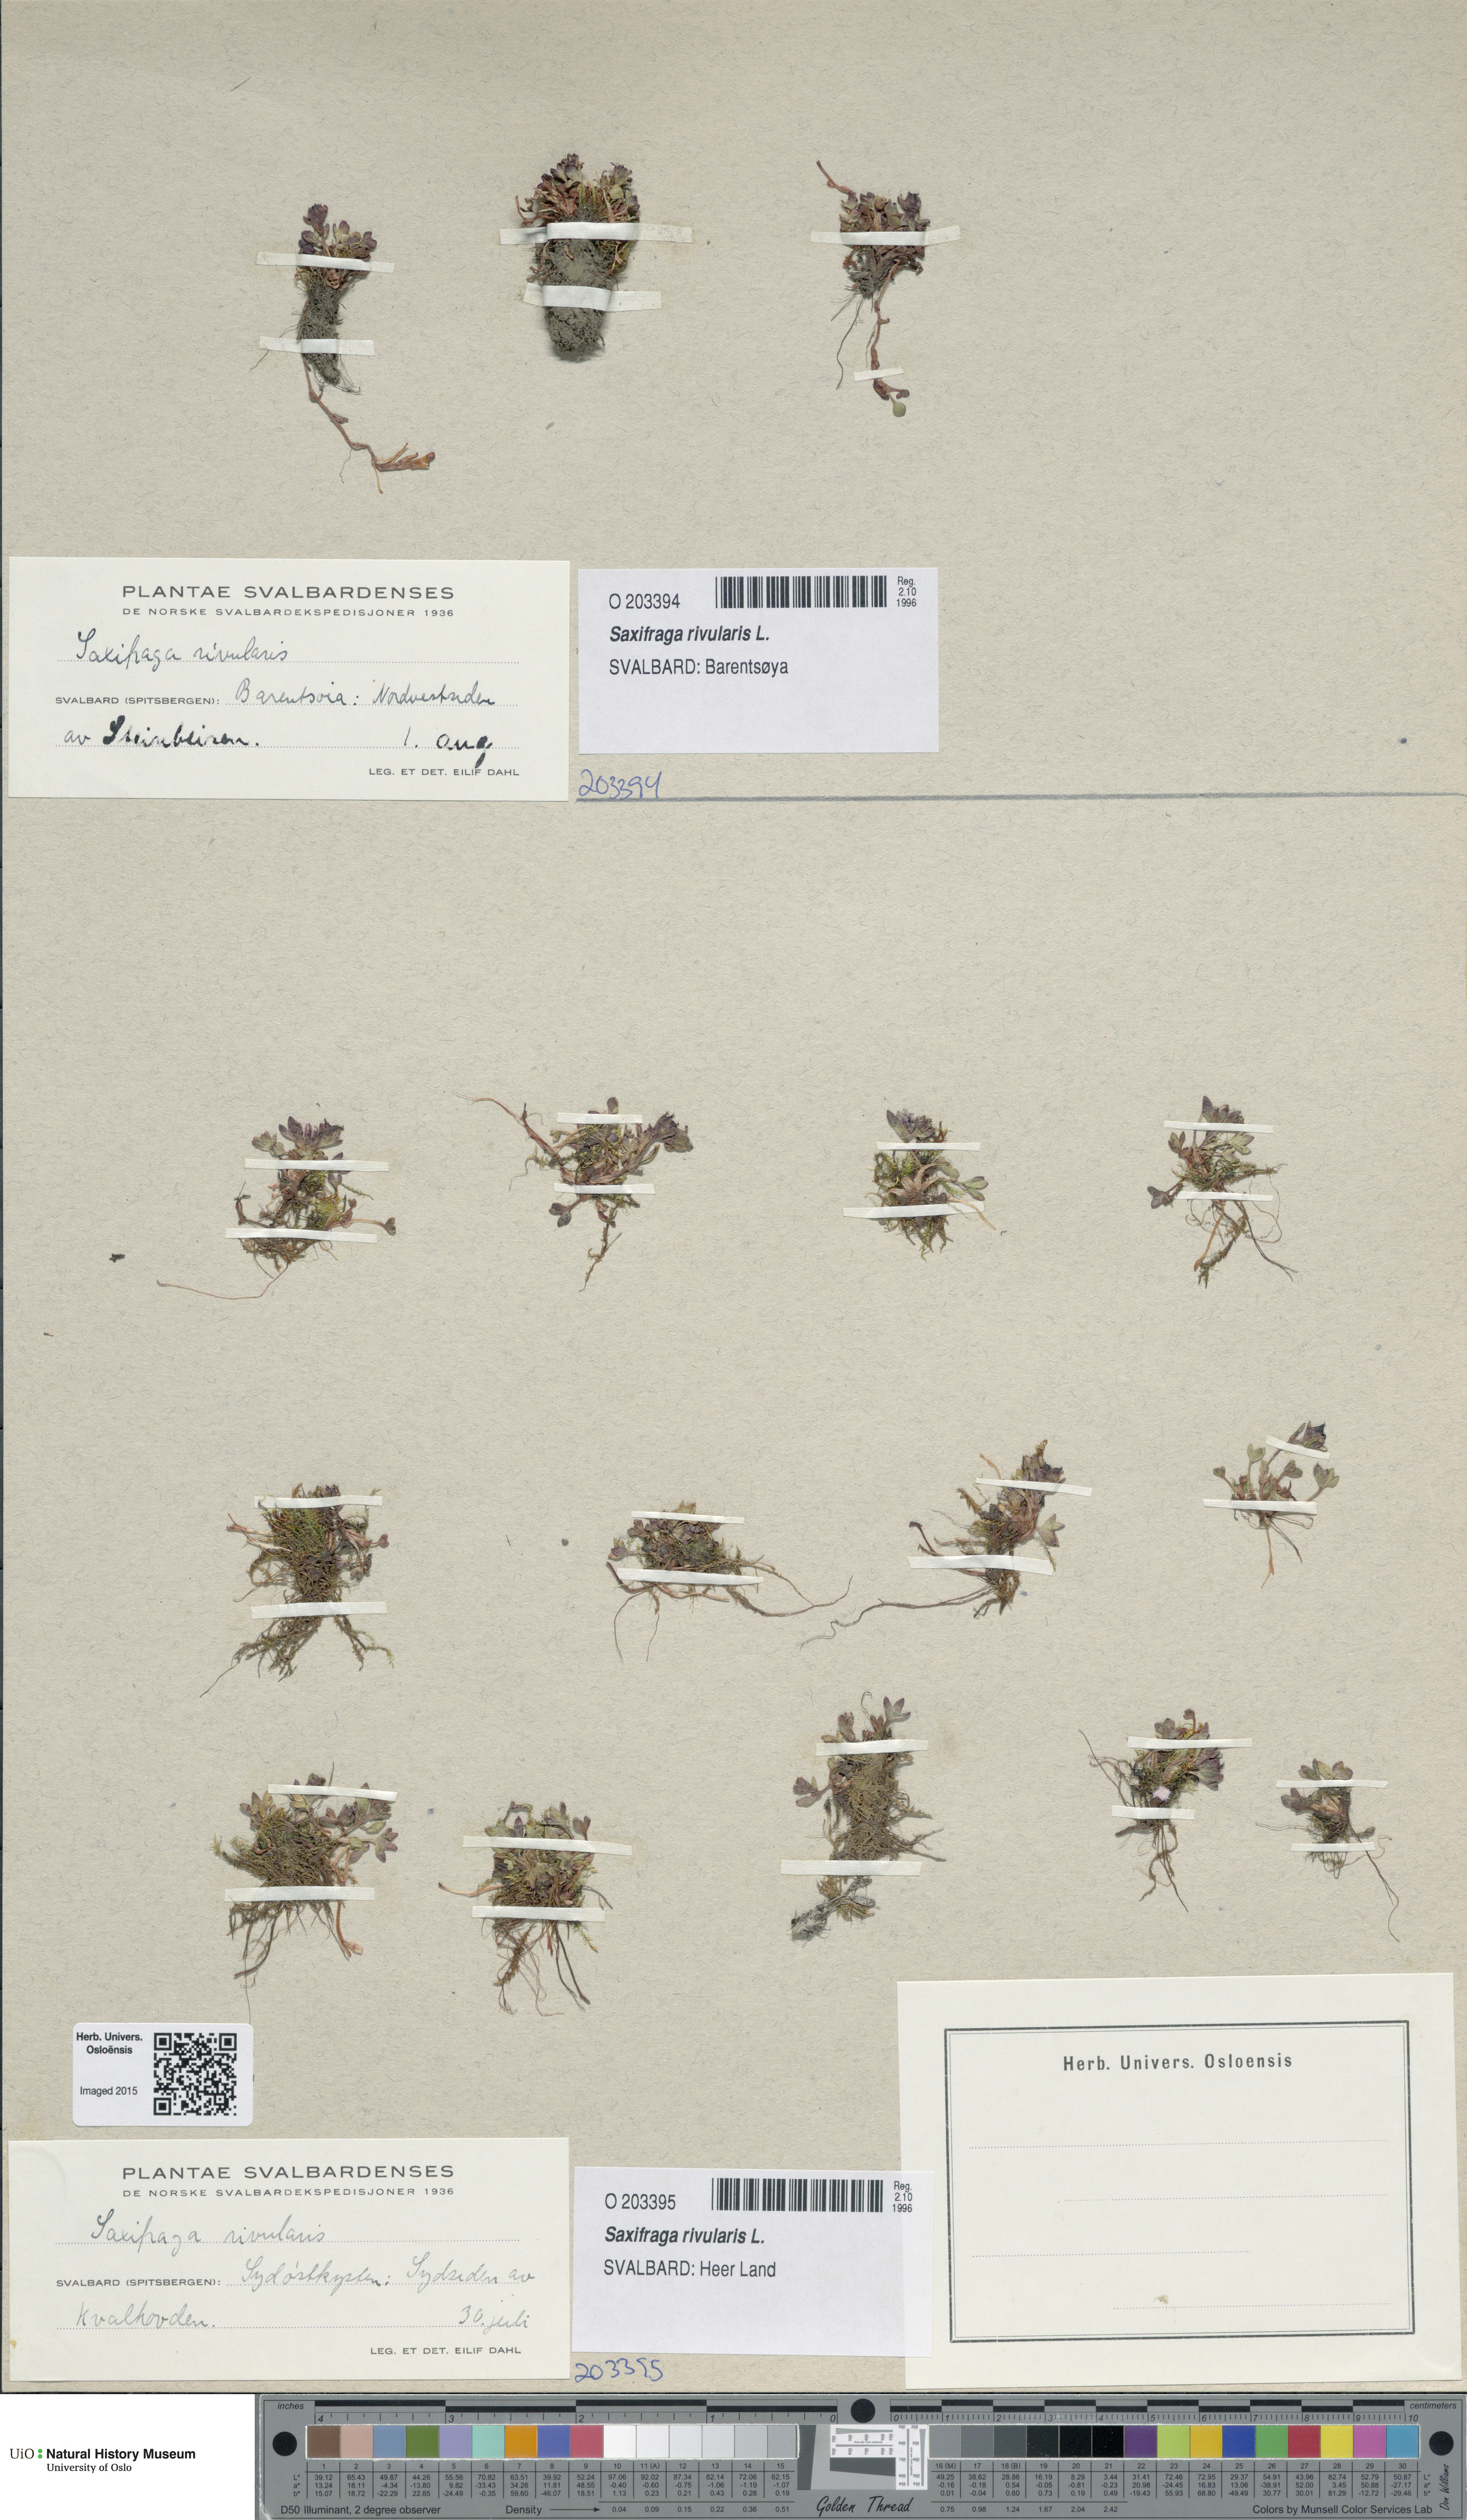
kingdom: Plantae
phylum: Tracheophyta
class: Magnoliopsida
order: Saxifragales
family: Saxifragaceae
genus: Saxifraga
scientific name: Saxifraga rivularis
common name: Highland saxifrage
